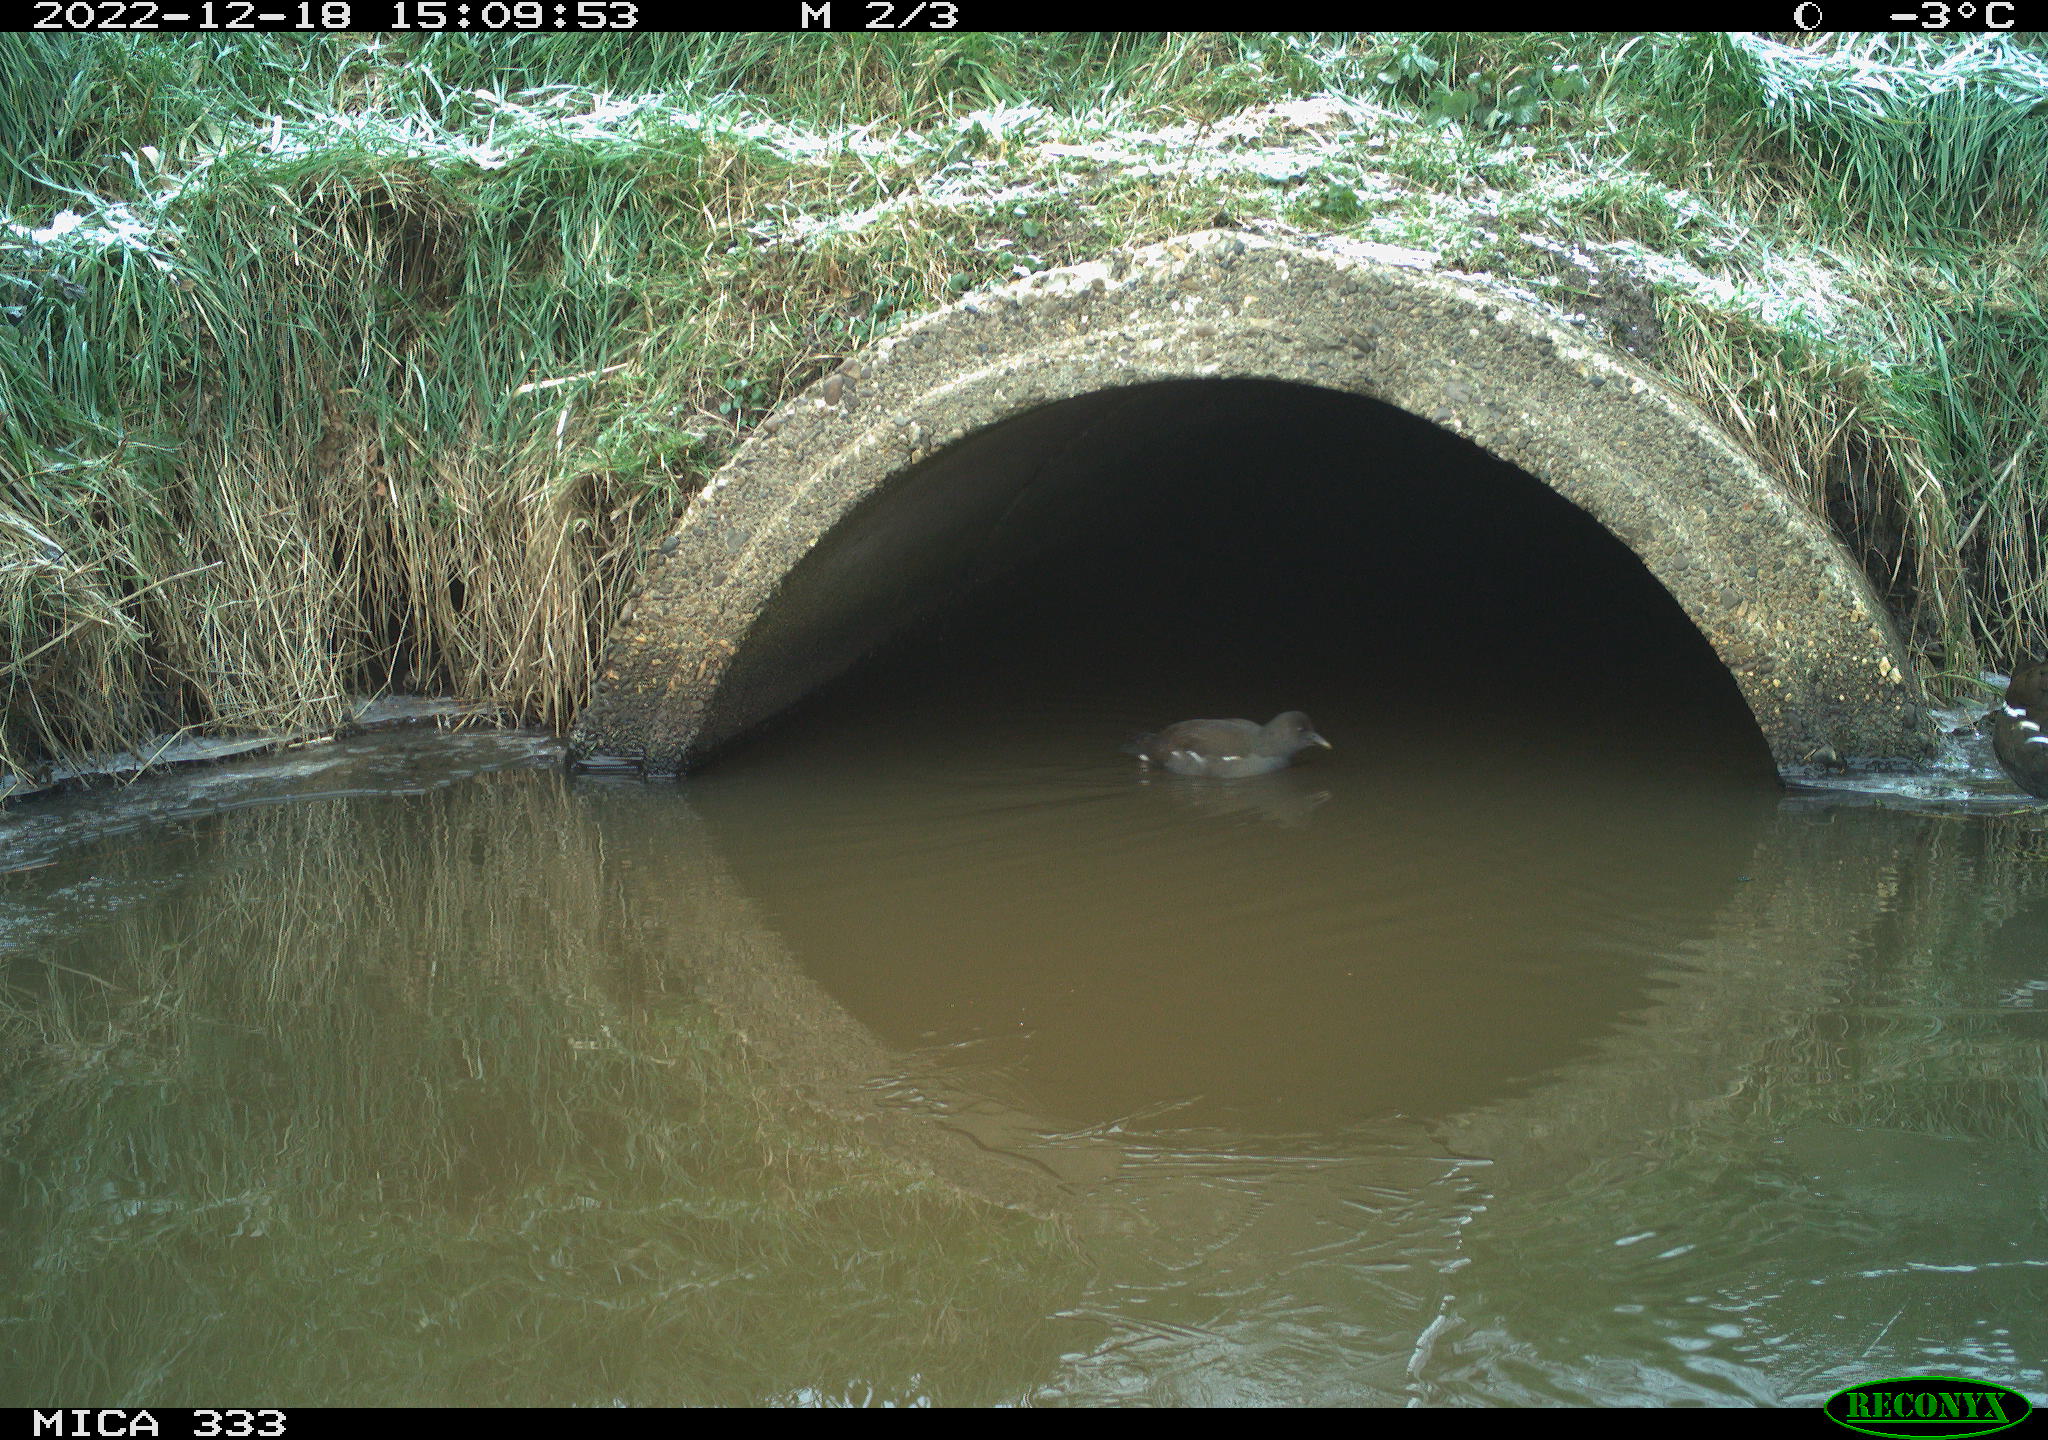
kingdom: Animalia
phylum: Chordata
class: Aves
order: Gruiformes
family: Rallidae
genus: Gallinula
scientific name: Gallinula chloropus
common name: Common moorhen
